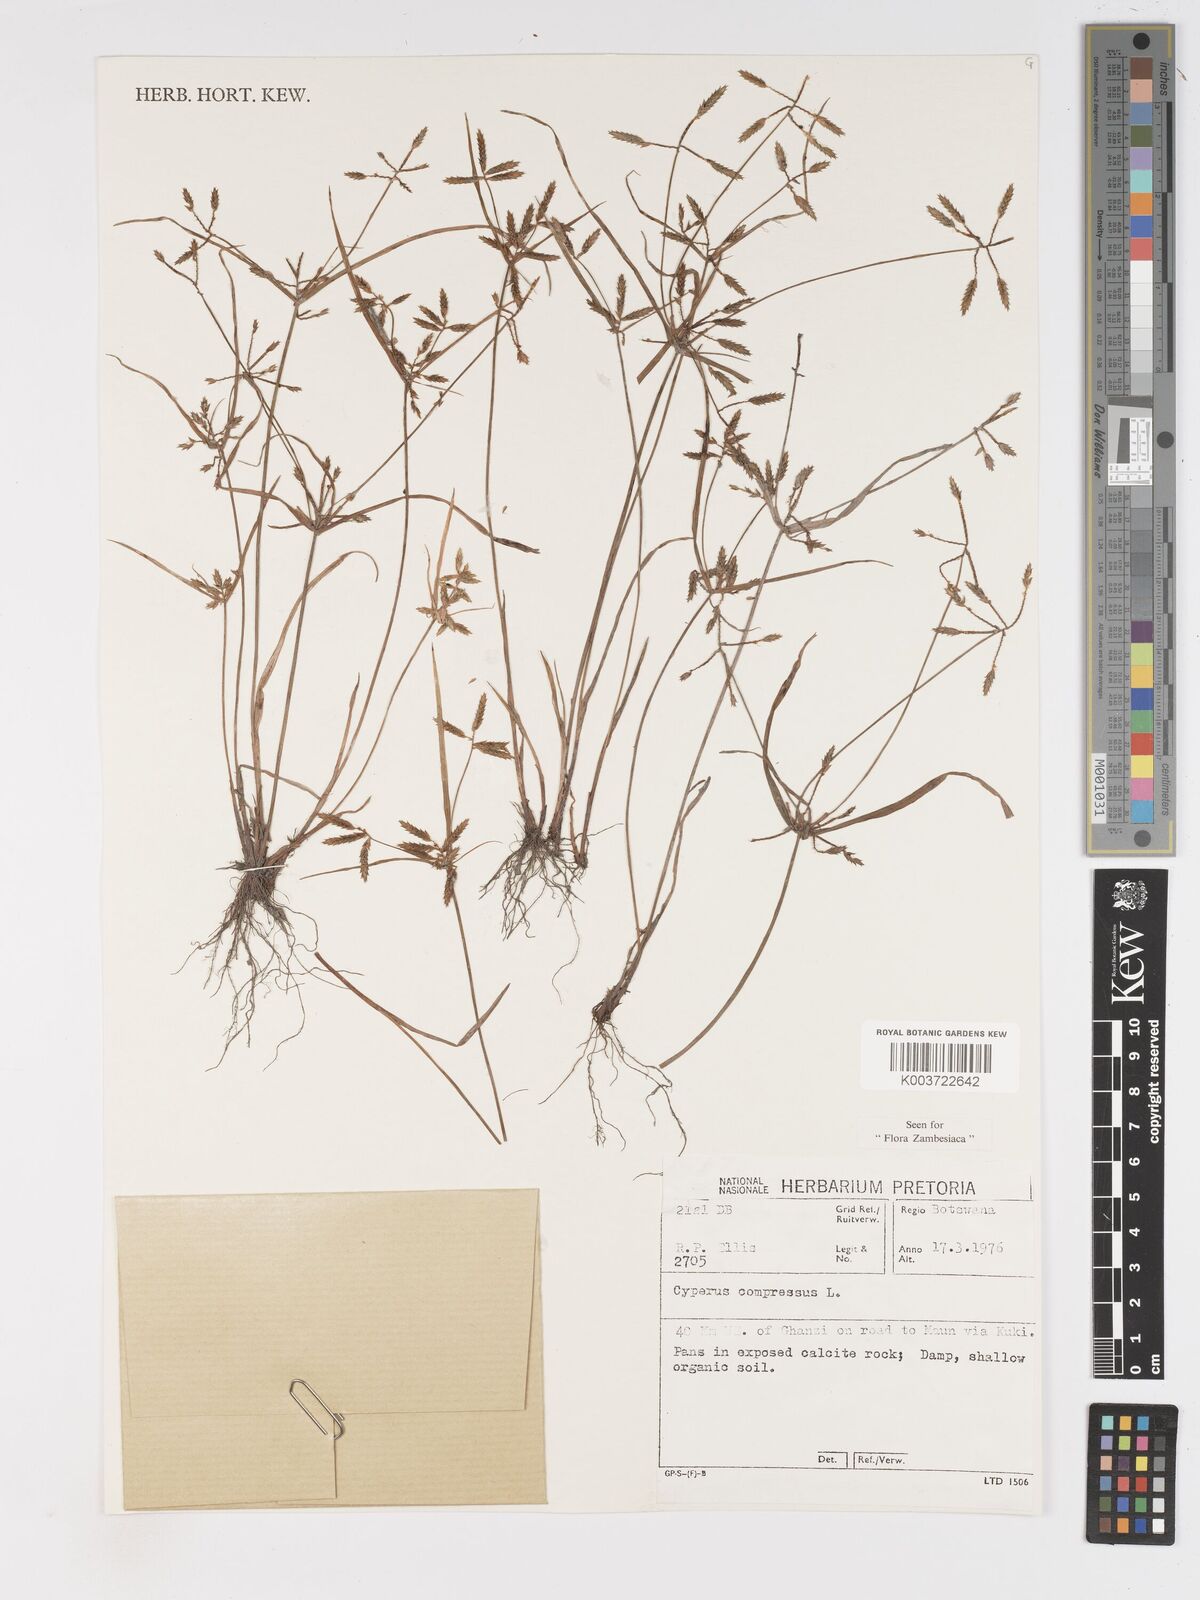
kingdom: Plantae
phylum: Tracheophyta
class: Liliopsida
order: Poales
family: Cyperaceae
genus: Cyperus
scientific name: Cyperus compressus
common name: Poorland flatsedge
